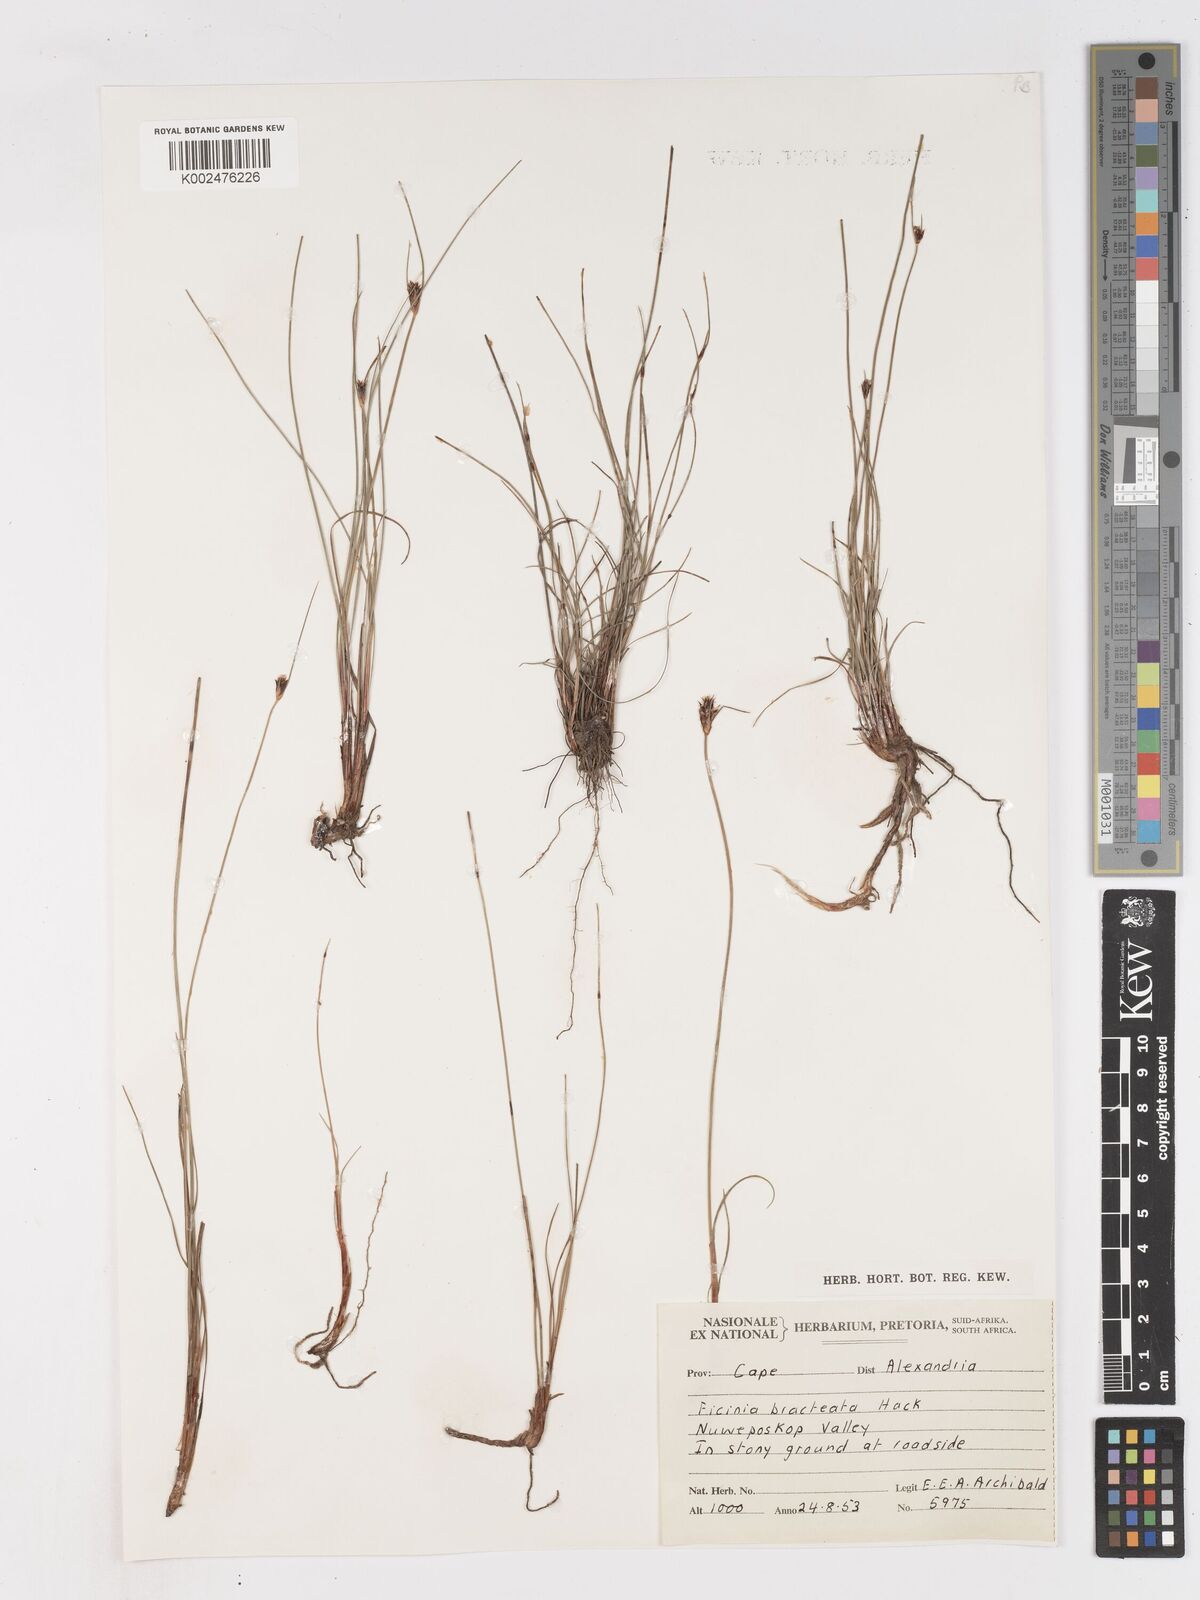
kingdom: Plantae
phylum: Tracheophyta
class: Liliopsida
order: Poales
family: Cyperaceae
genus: Ficinia
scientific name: Ficinia nigrescens
